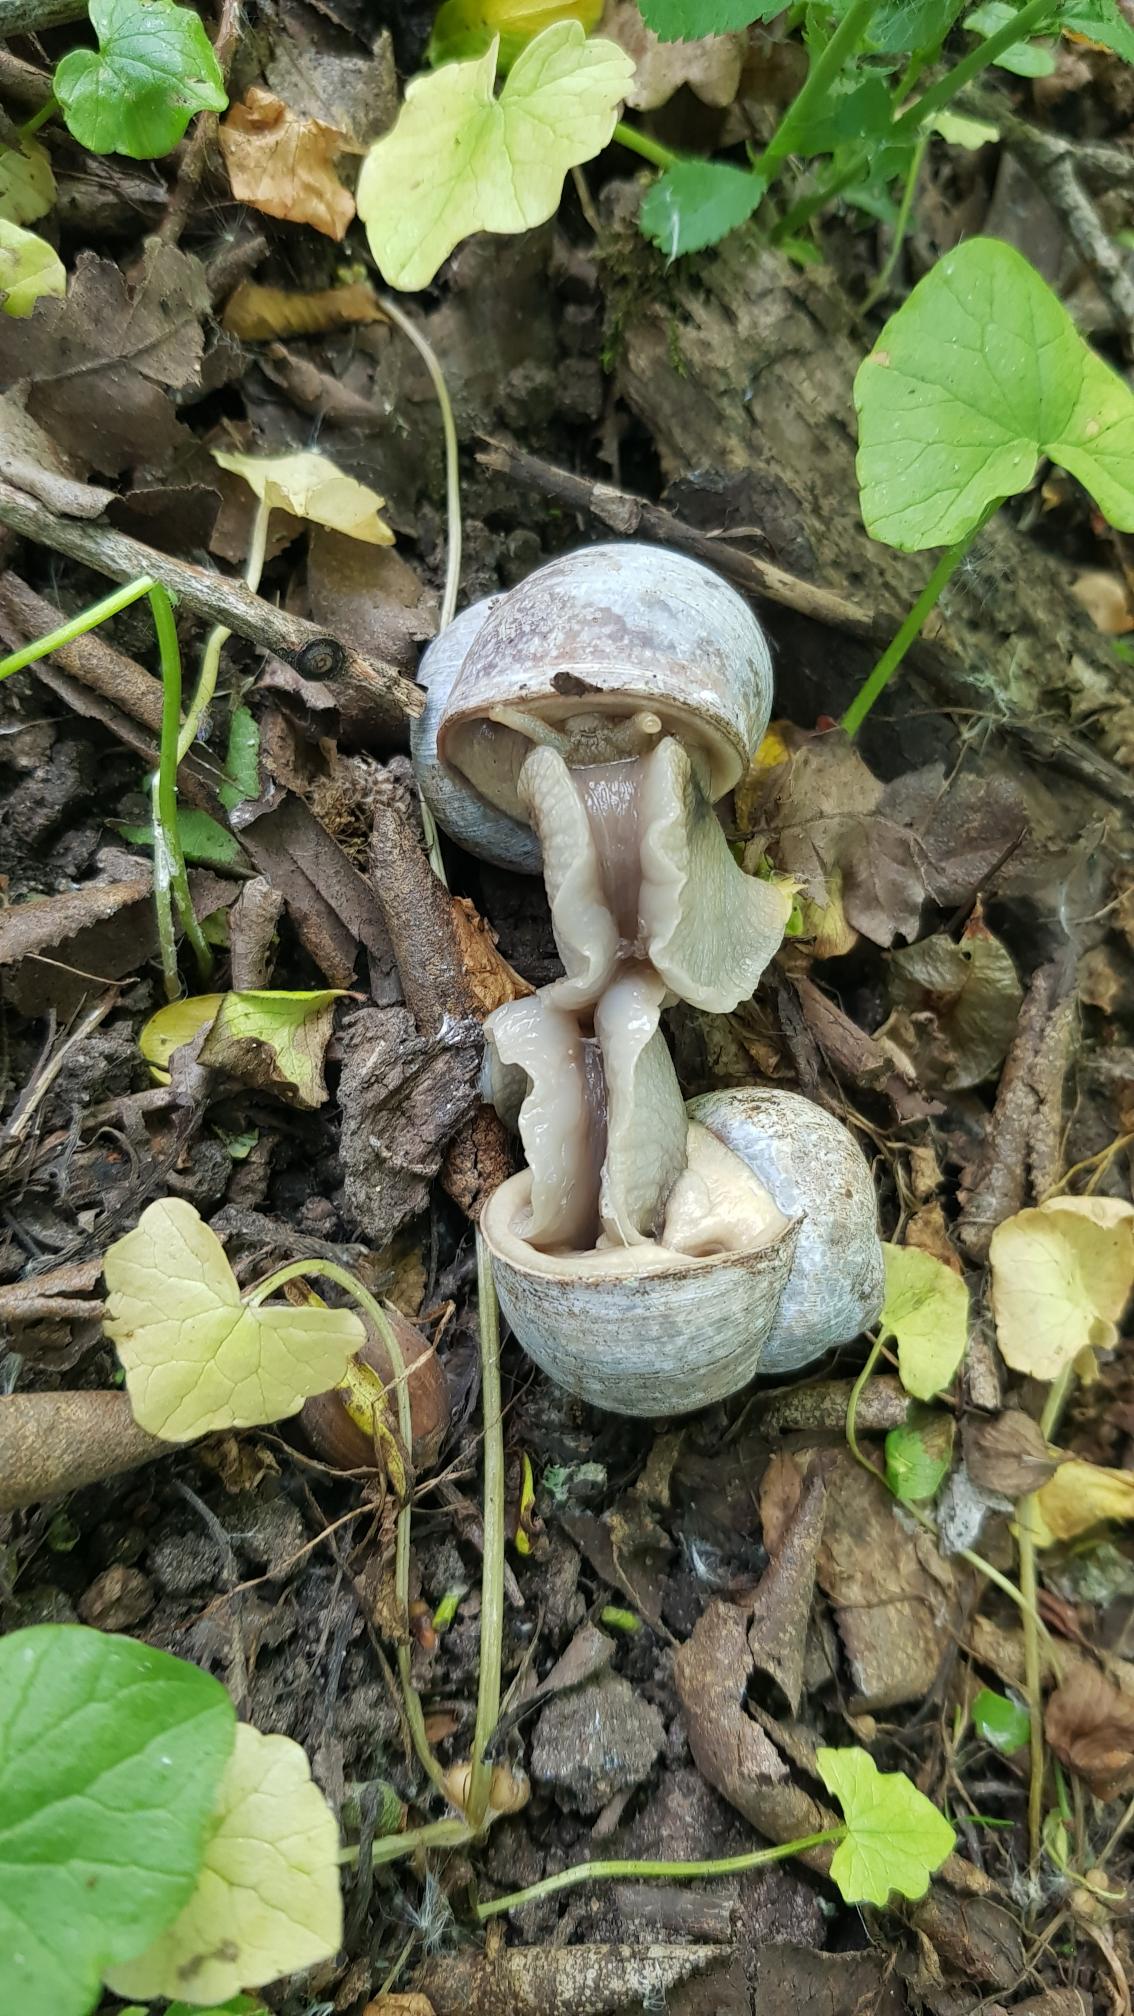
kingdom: Animalia
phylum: Mollusca
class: Gastropoda
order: Stylommatophora
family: Helicidae
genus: Helix
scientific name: Helix pomatia
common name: Vinbjergsnegl
